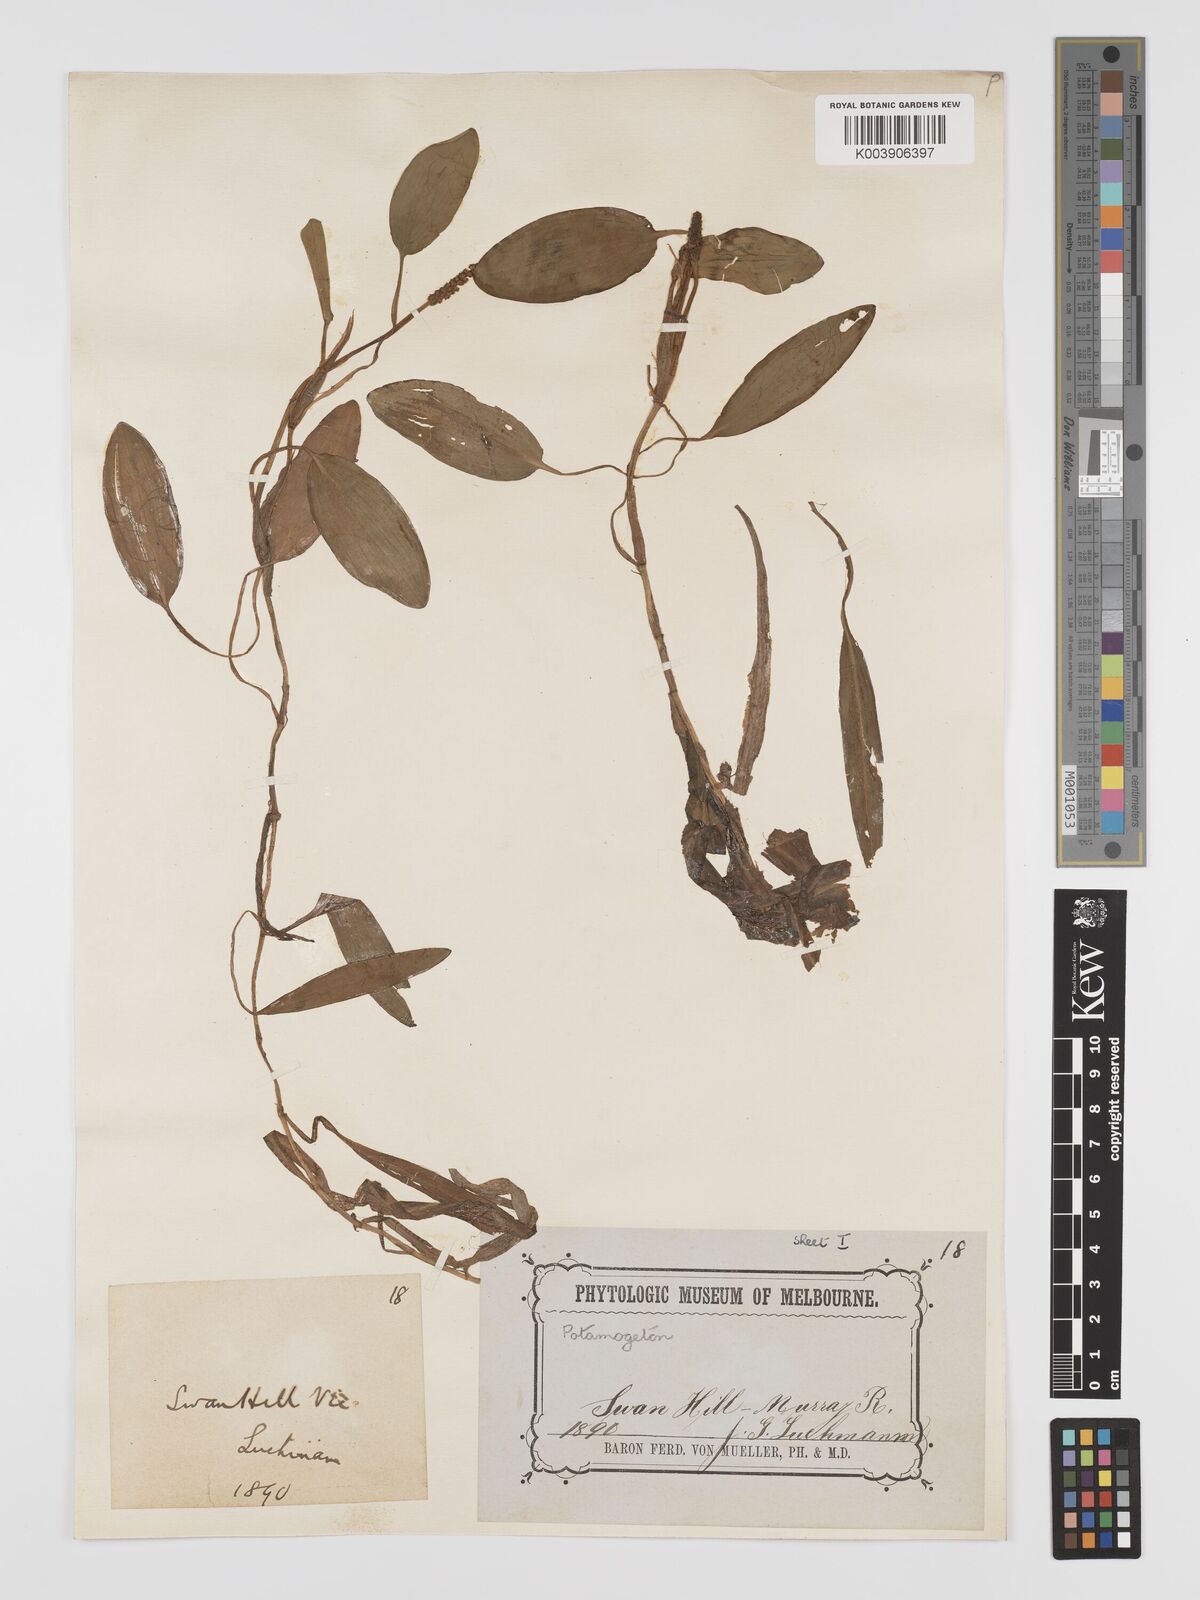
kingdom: Plantae
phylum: Tracheophyta
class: Liliopsida
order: Alismatales
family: Potamogetonaceae
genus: Potamogeton
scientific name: Potamogeton tricarinatus
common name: Pondweed
